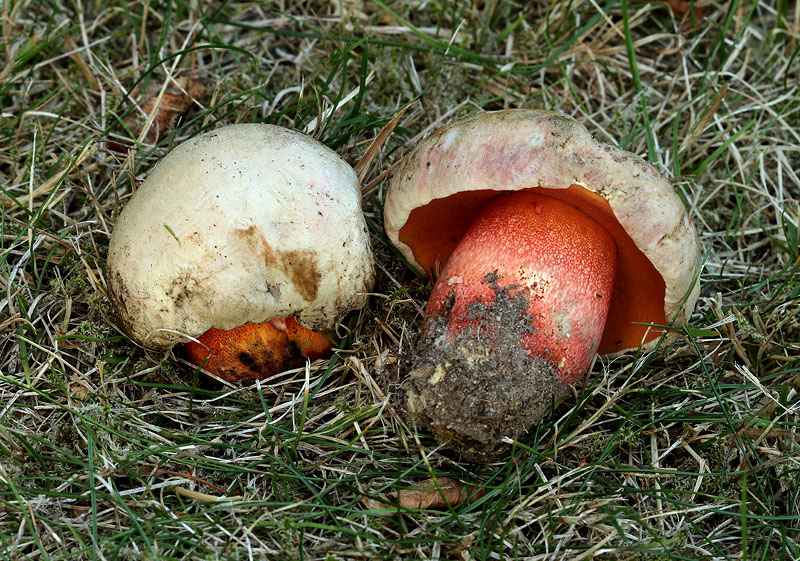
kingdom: Fungi
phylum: Basidiomycota
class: Agaricomycetes
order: Boletales
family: Boletaceae
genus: Rubroboletus
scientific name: Rubroboletus legaliae
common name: djævle-rørhat
